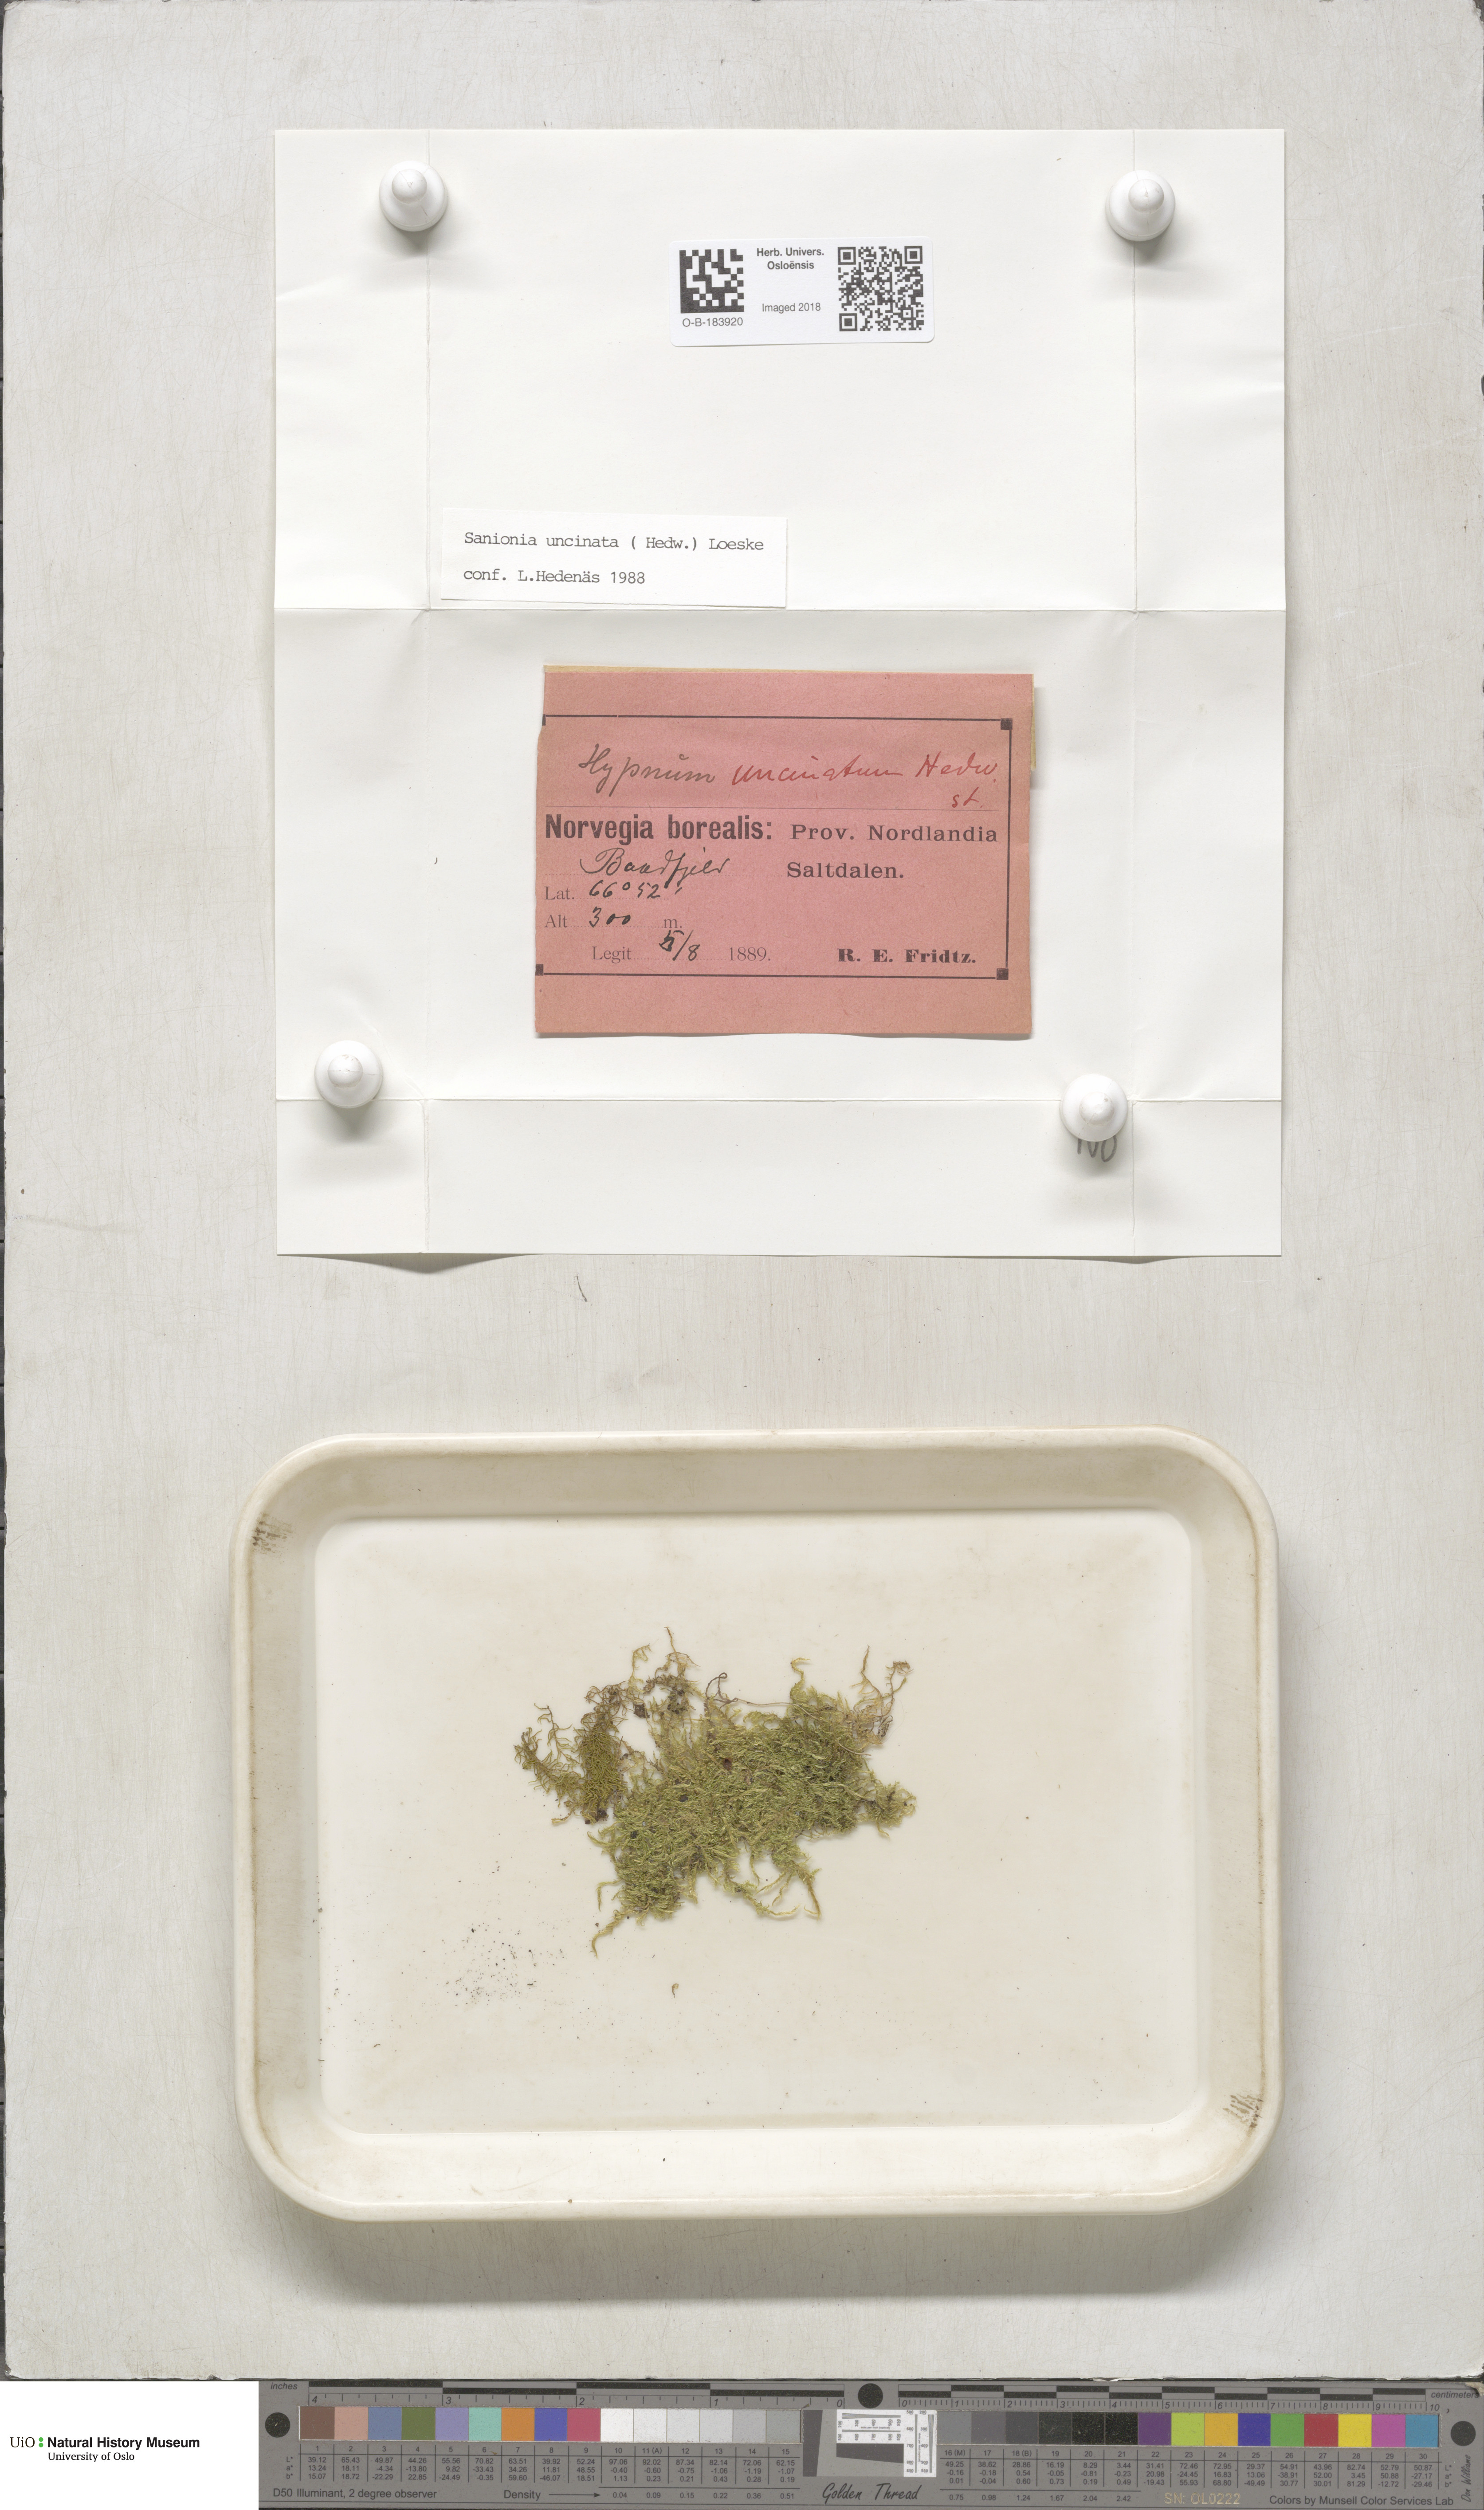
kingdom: Plantae
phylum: Bryophyta
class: Bryopsida
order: Hypnales
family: Scorpidiaceae
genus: Sanionia
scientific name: Sanionia uncinata
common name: Sickle moss
